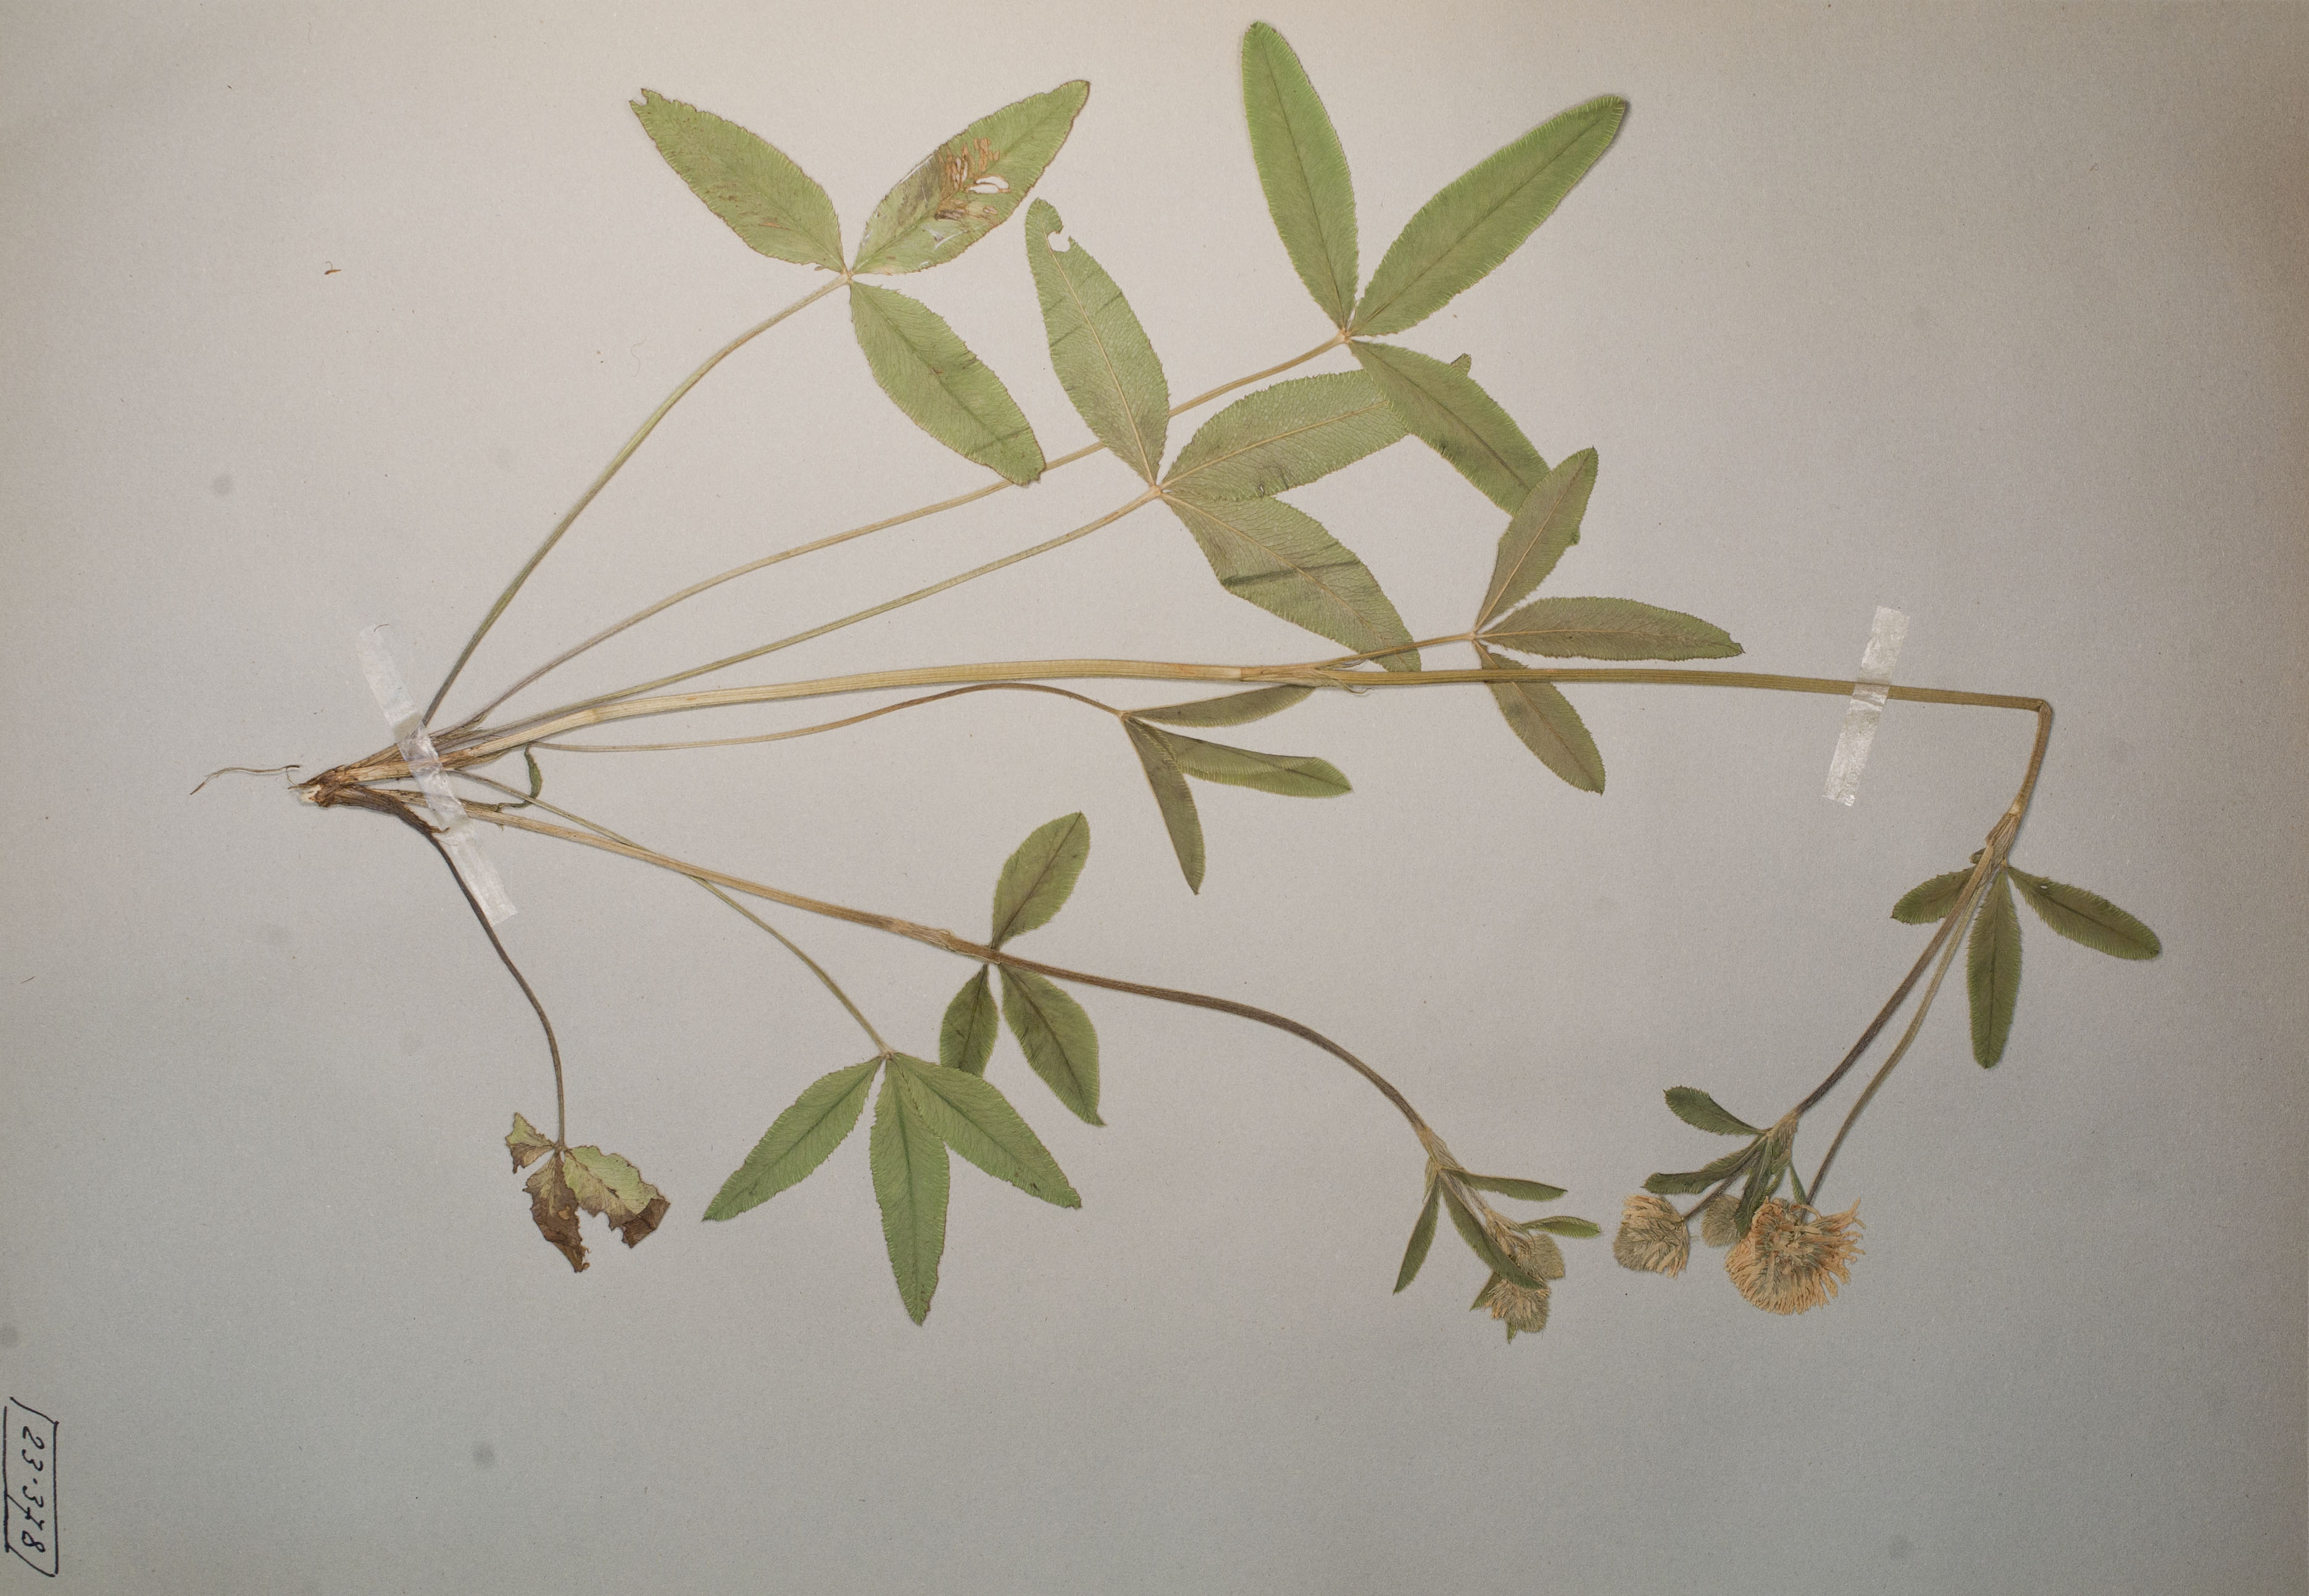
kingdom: Plantae
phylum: Tracheophyta
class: Magnoliopsida
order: Fabales
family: Fabaceae
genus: Trifolium
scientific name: Trifolium montanum
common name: Mountain clover
